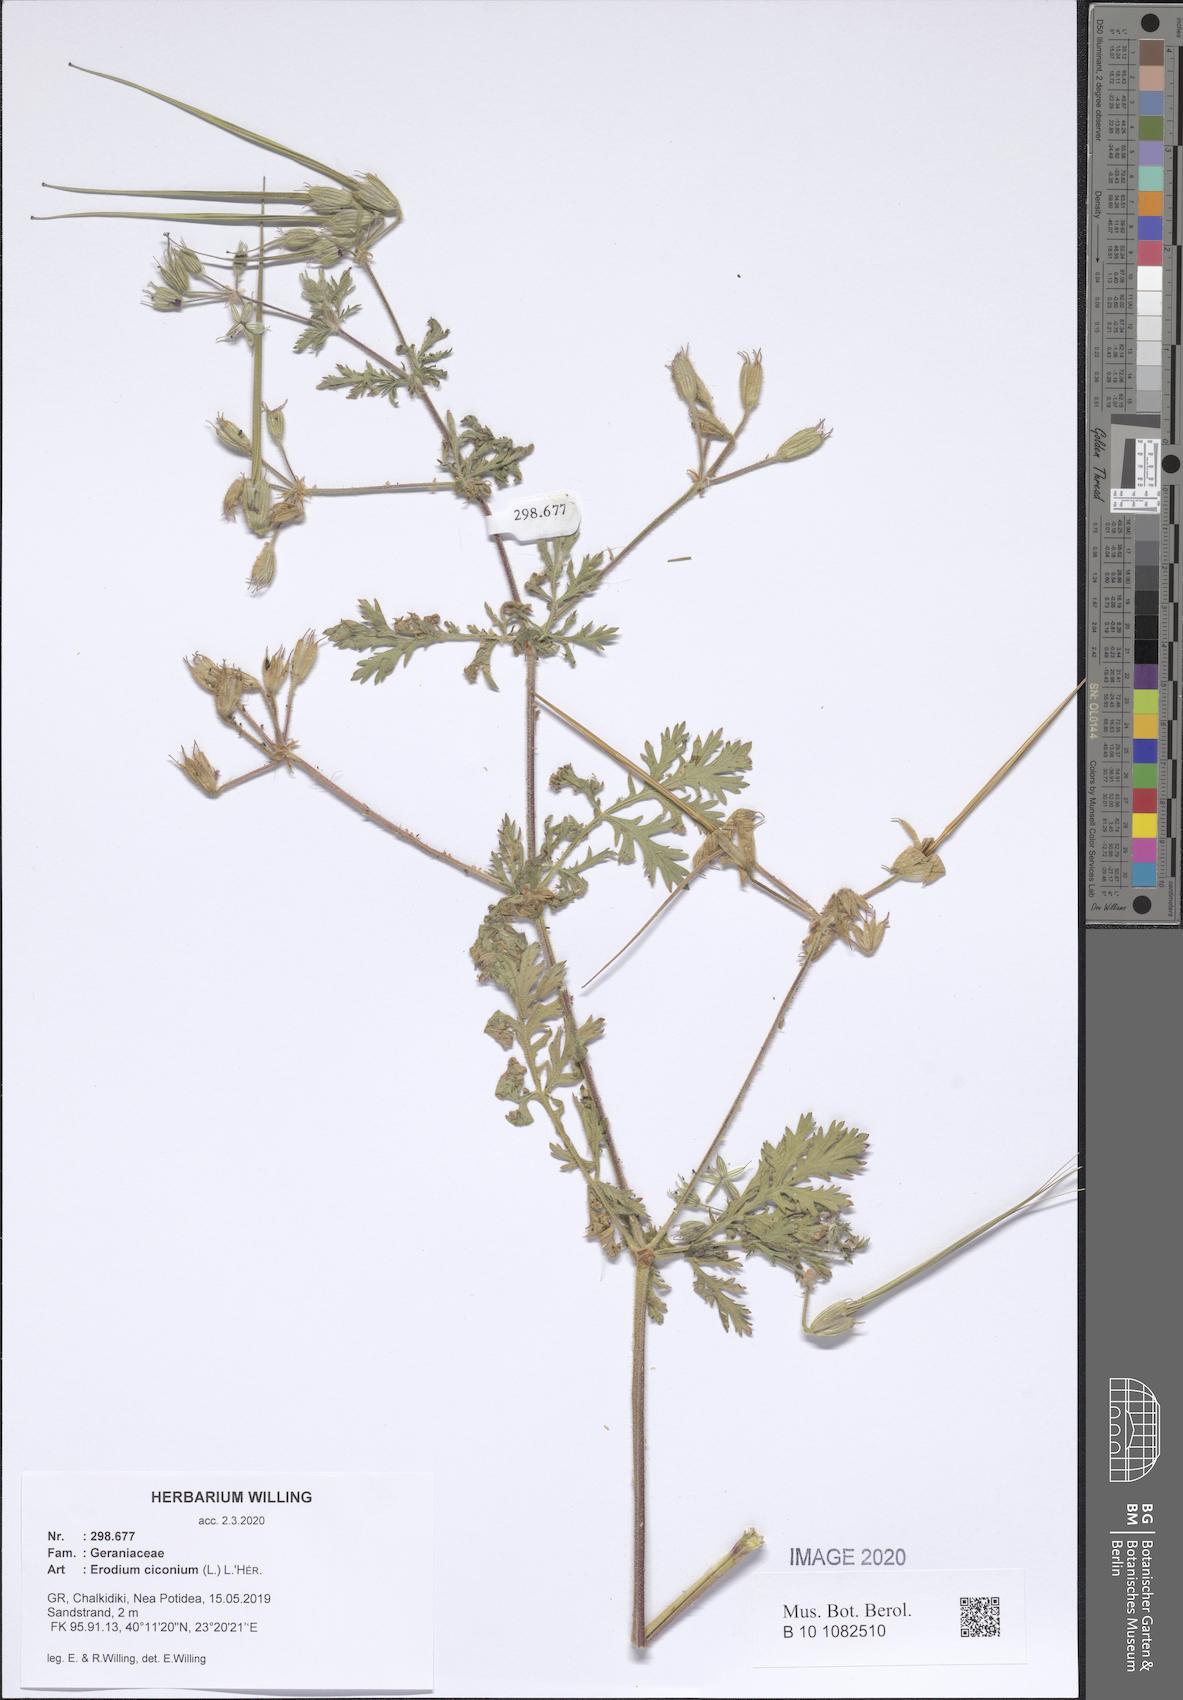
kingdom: Plantae
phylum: Tracheophyta
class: Magnoliopsida
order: Geraniales
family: Geraniaceae
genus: Erodium
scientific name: Erodium ciconium
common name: Common stork's bill
